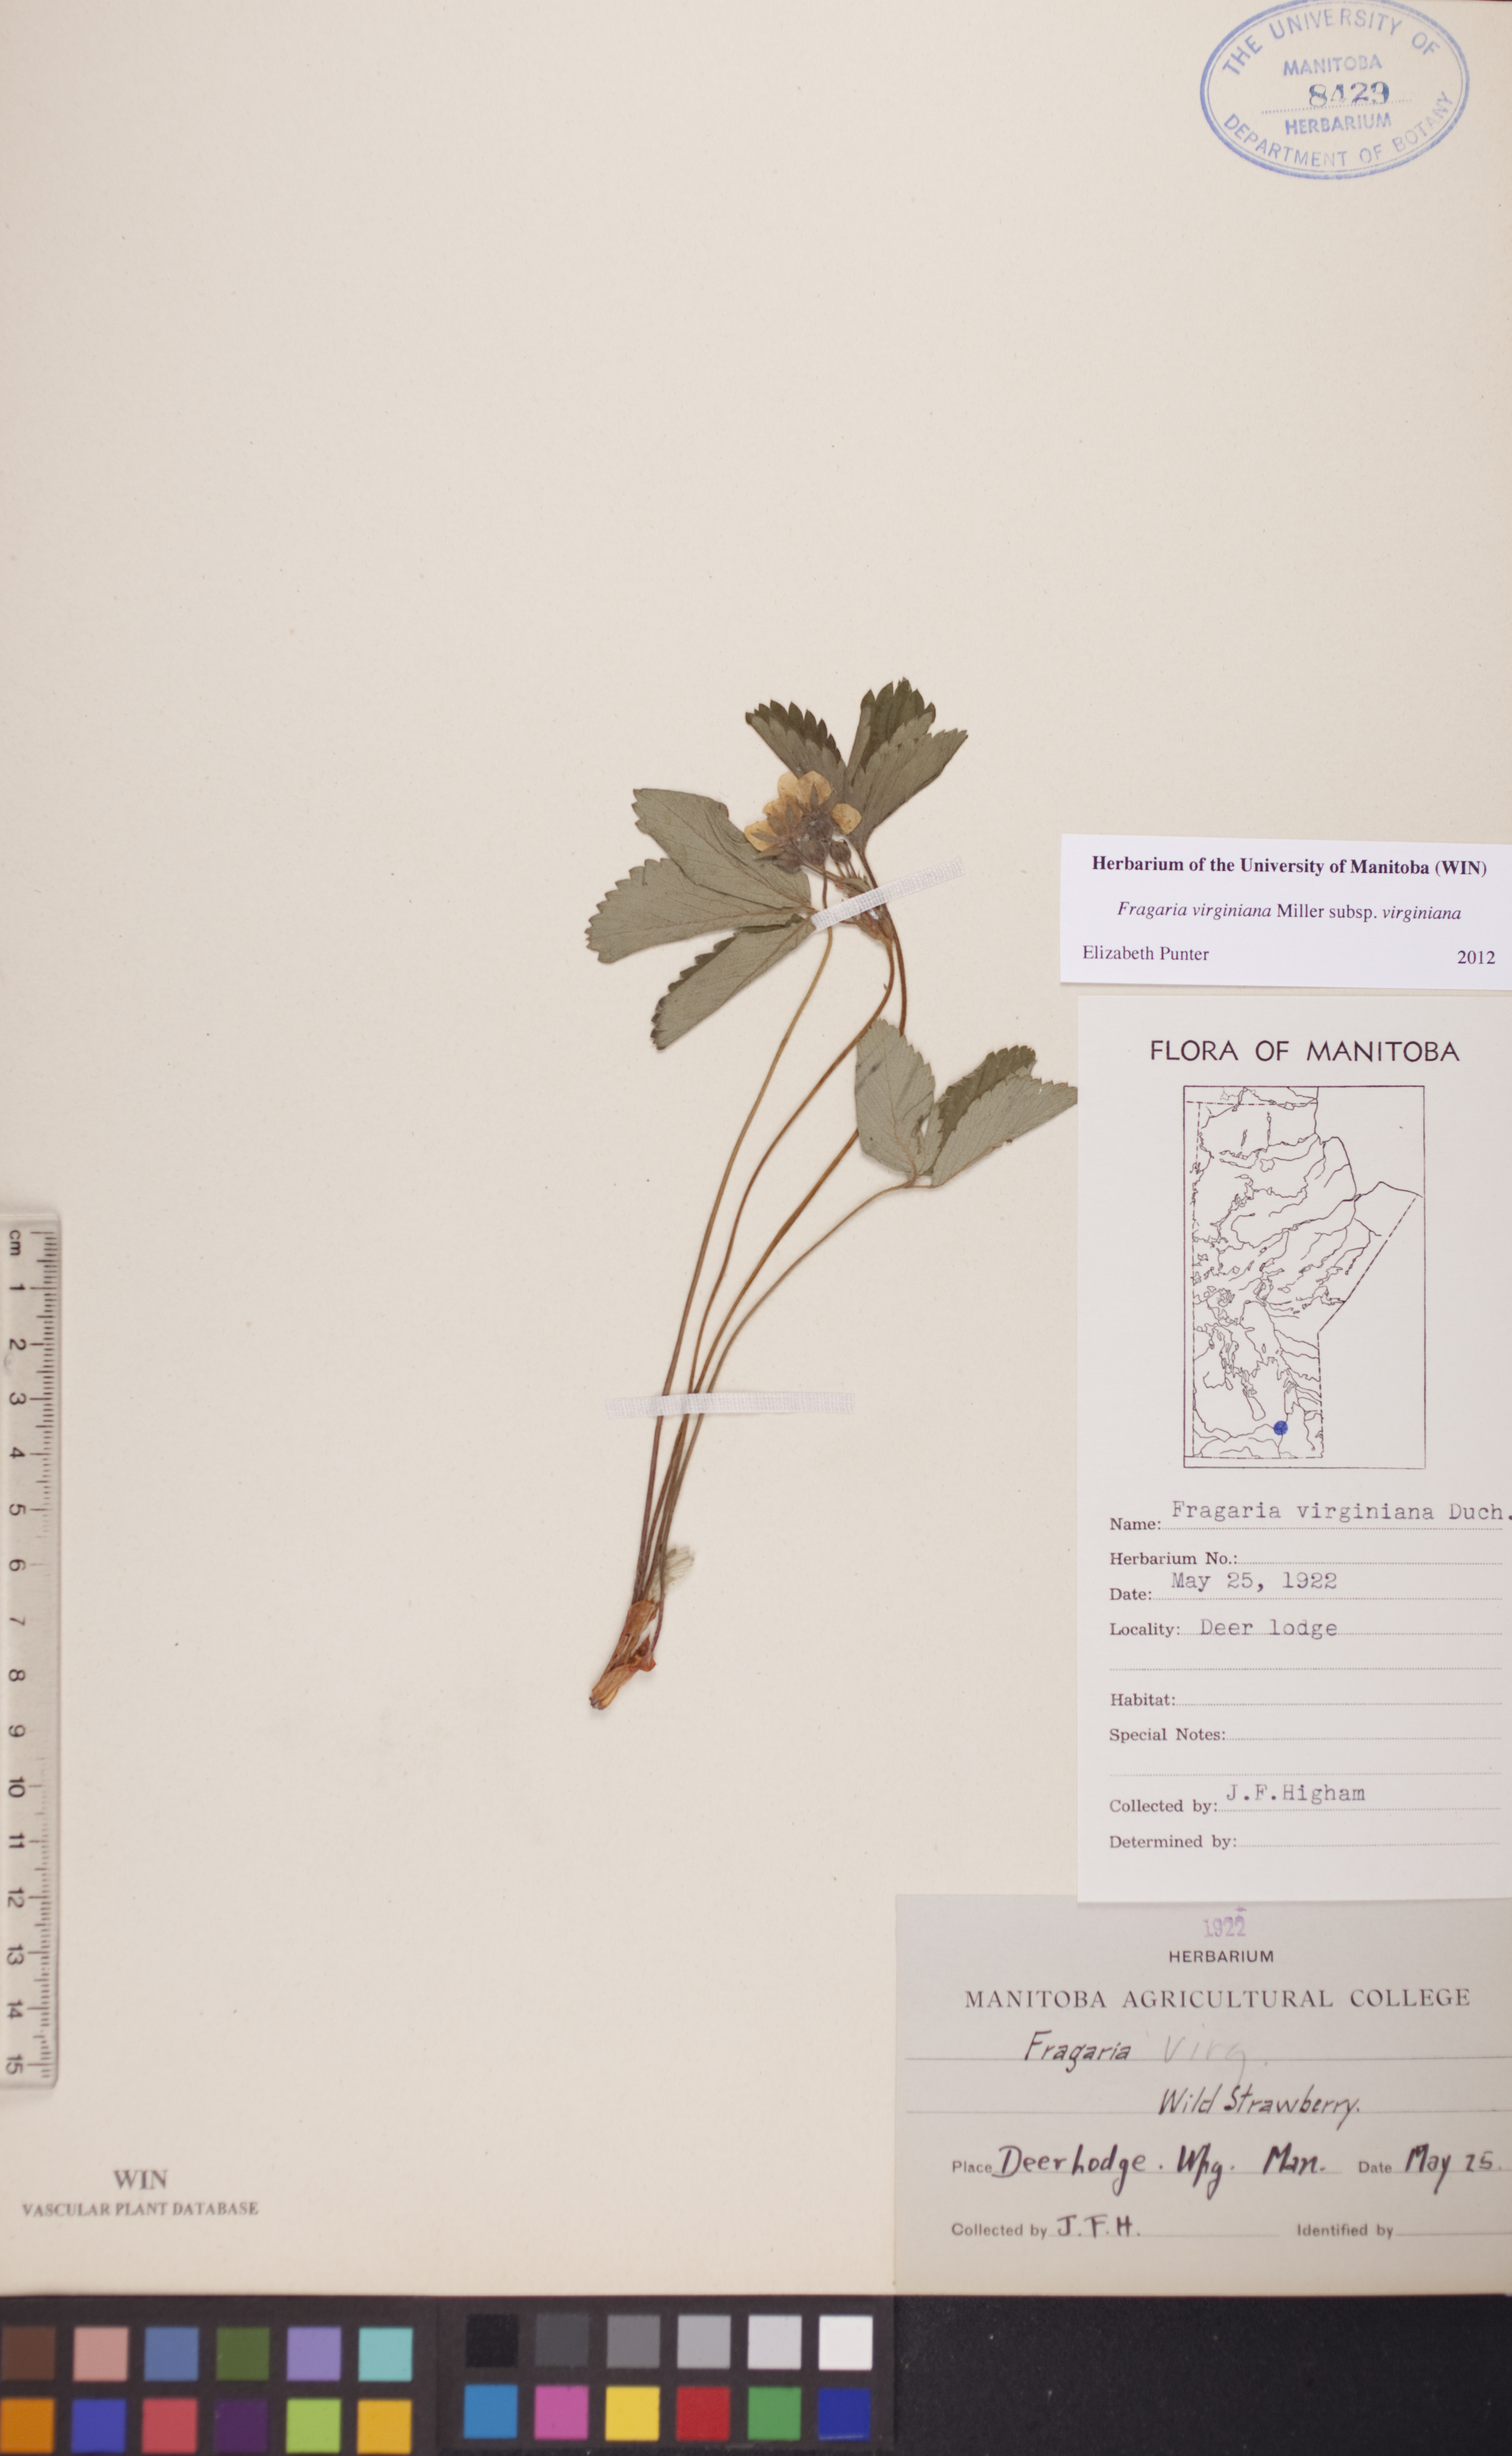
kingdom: Plantae
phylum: Tracheophyta
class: Magnoliopsida
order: Rosales
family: Rosaceae
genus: Fragaria
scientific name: Fragaria virginiana
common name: Thickleaved wild strawberry
